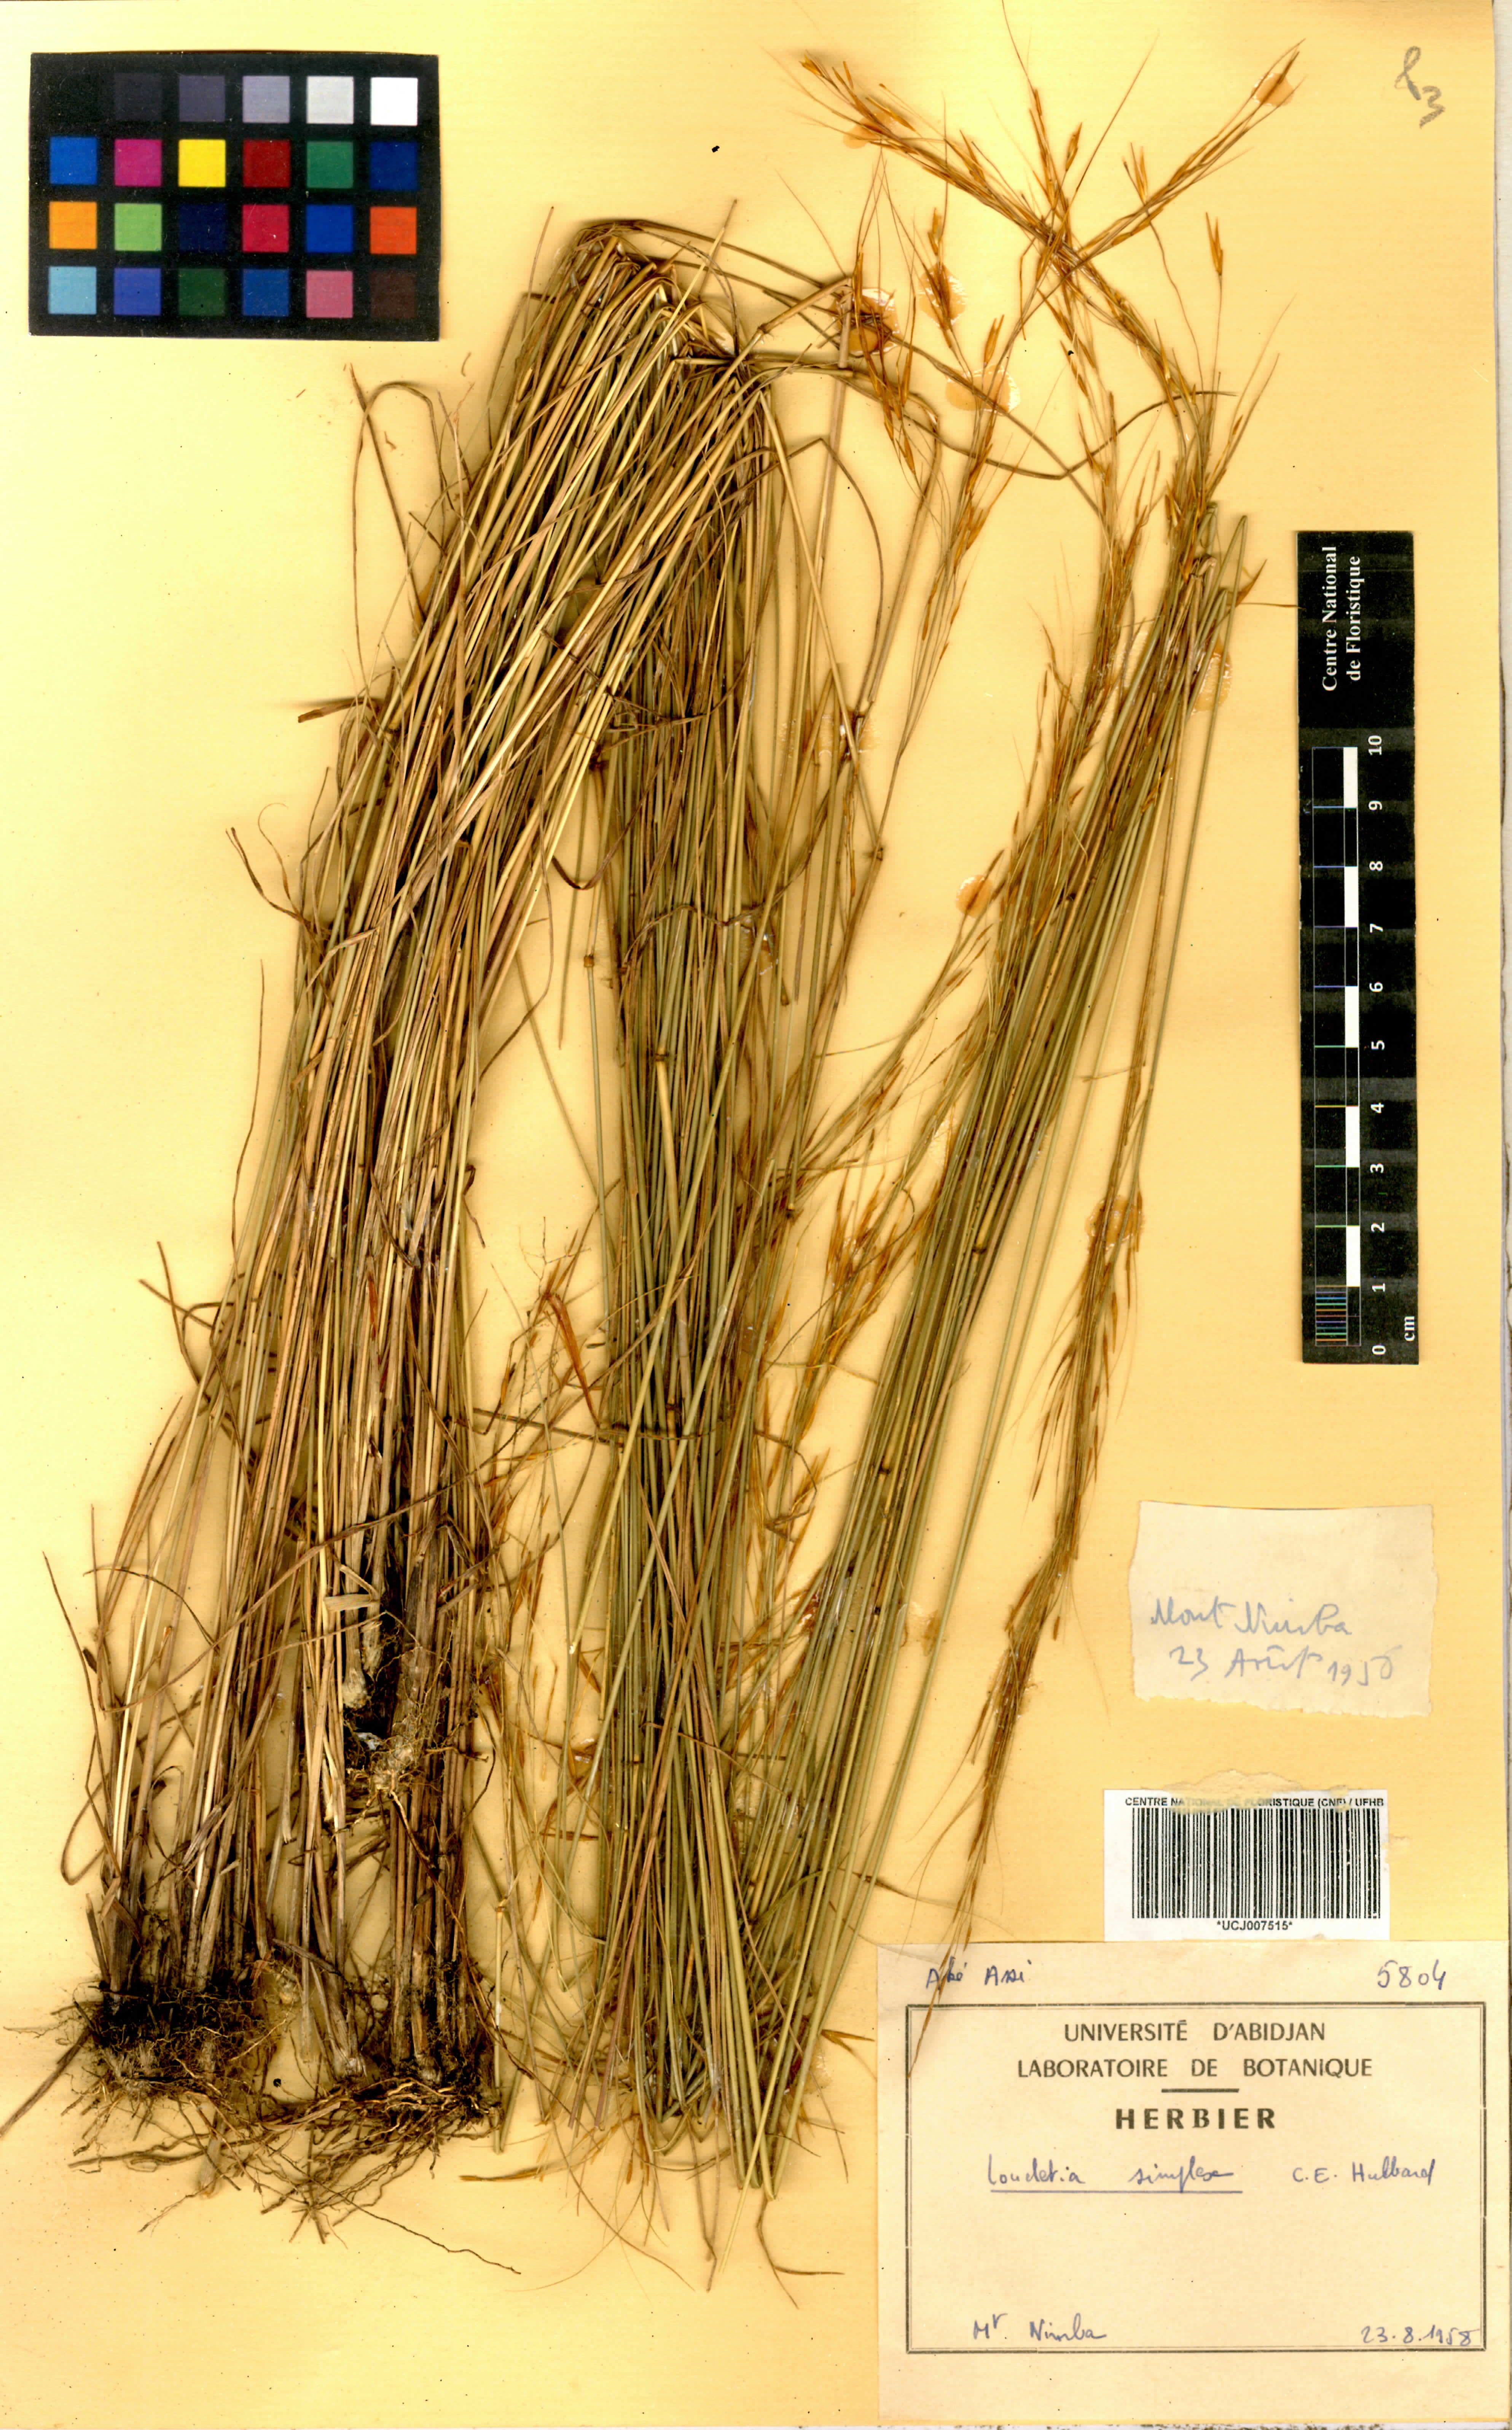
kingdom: Plantae
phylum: Tracheophyta
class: Liliopsida
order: Poales
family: Poaceae
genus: Loudetia
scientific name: Loudetia simplex
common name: Common russet grass
